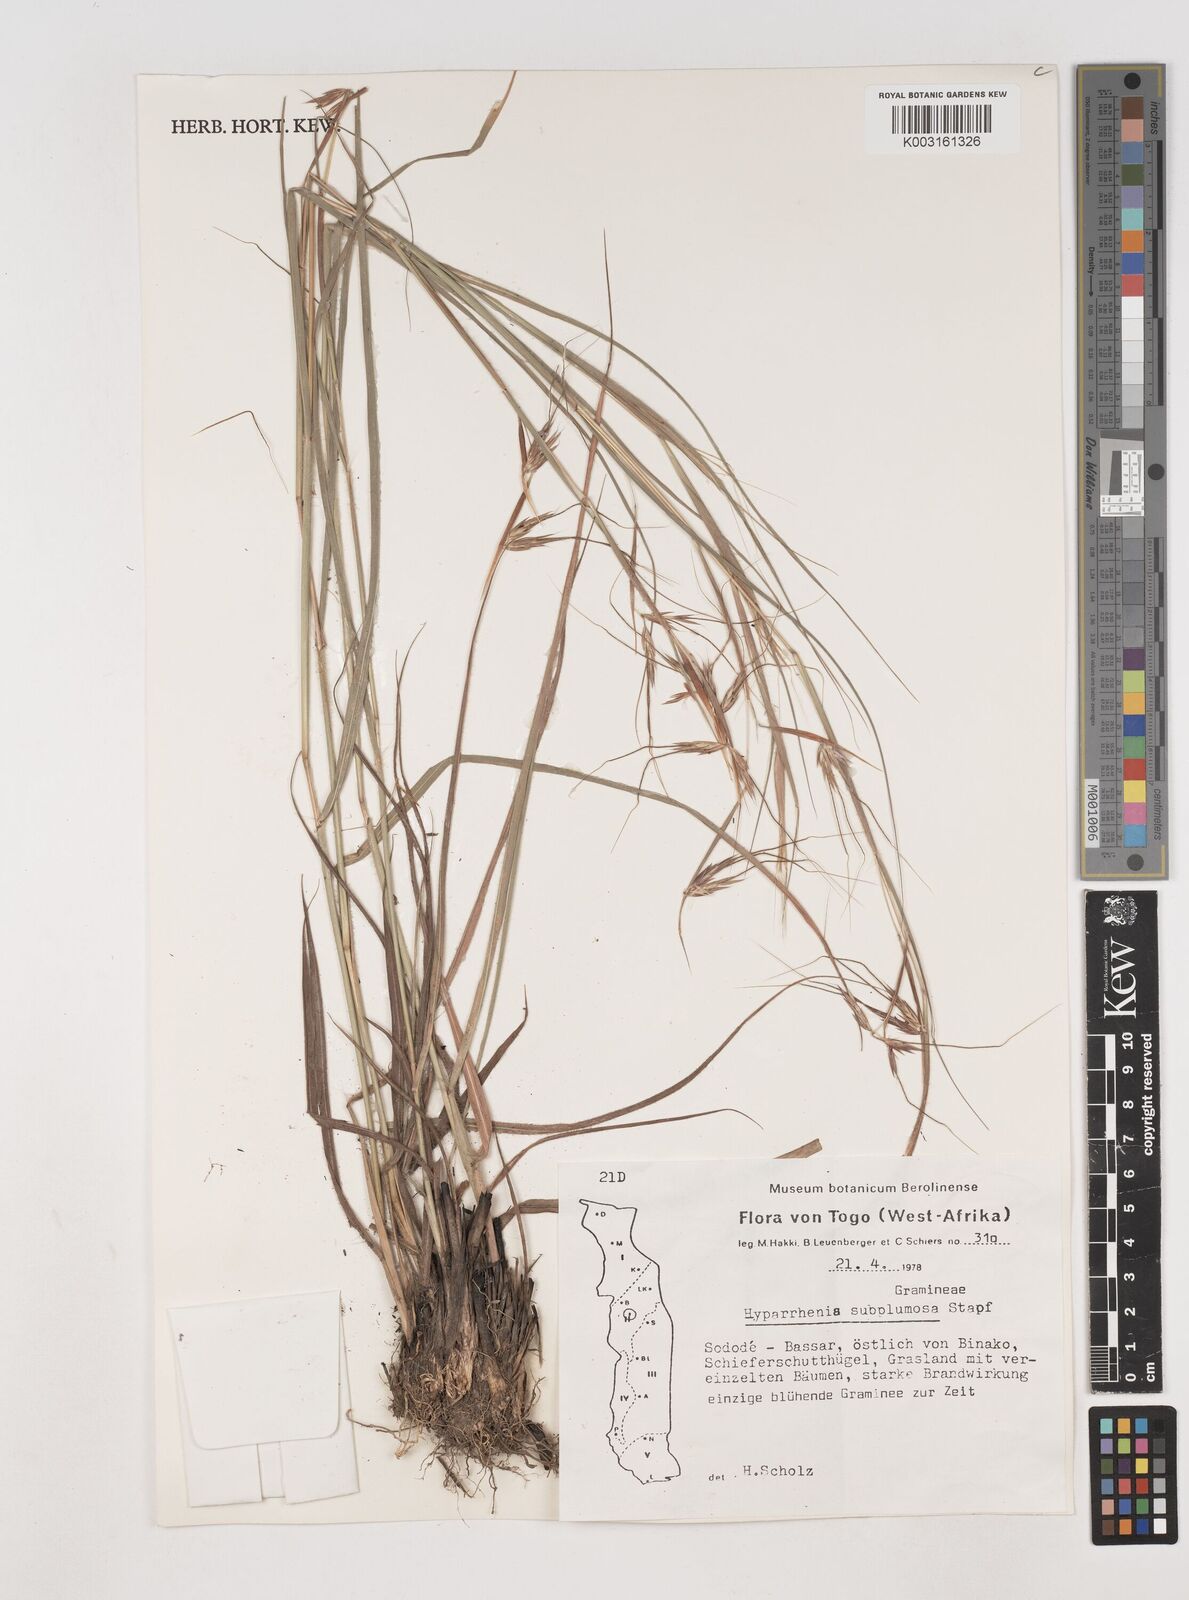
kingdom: Plantae
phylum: Tracheophyta
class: Liliopsida
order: Poales
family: Poaceae
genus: Hyparrhenia
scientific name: Hyparrhenia subplumosa
